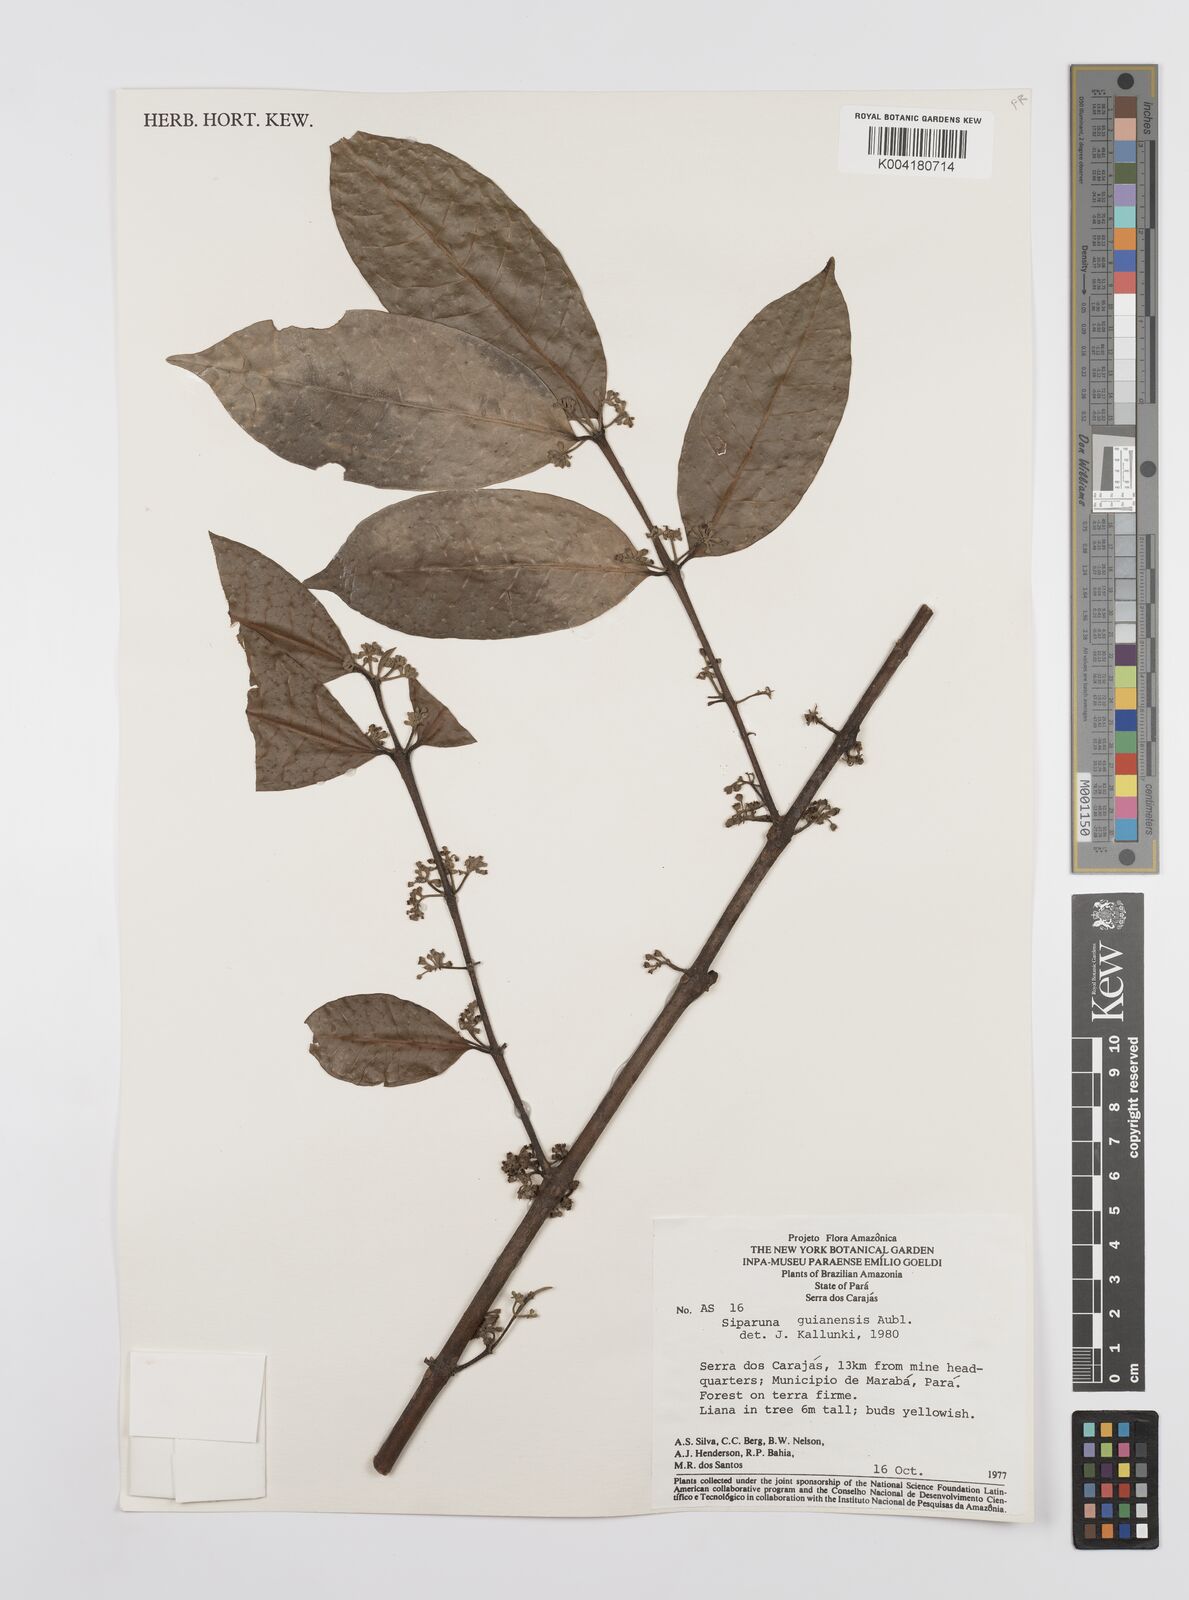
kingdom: Plantae
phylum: Tracheophyta
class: Magnoliopsida
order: Laurales
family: Siparunaceae
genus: Siparuna
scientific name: Siparuna guianensis
